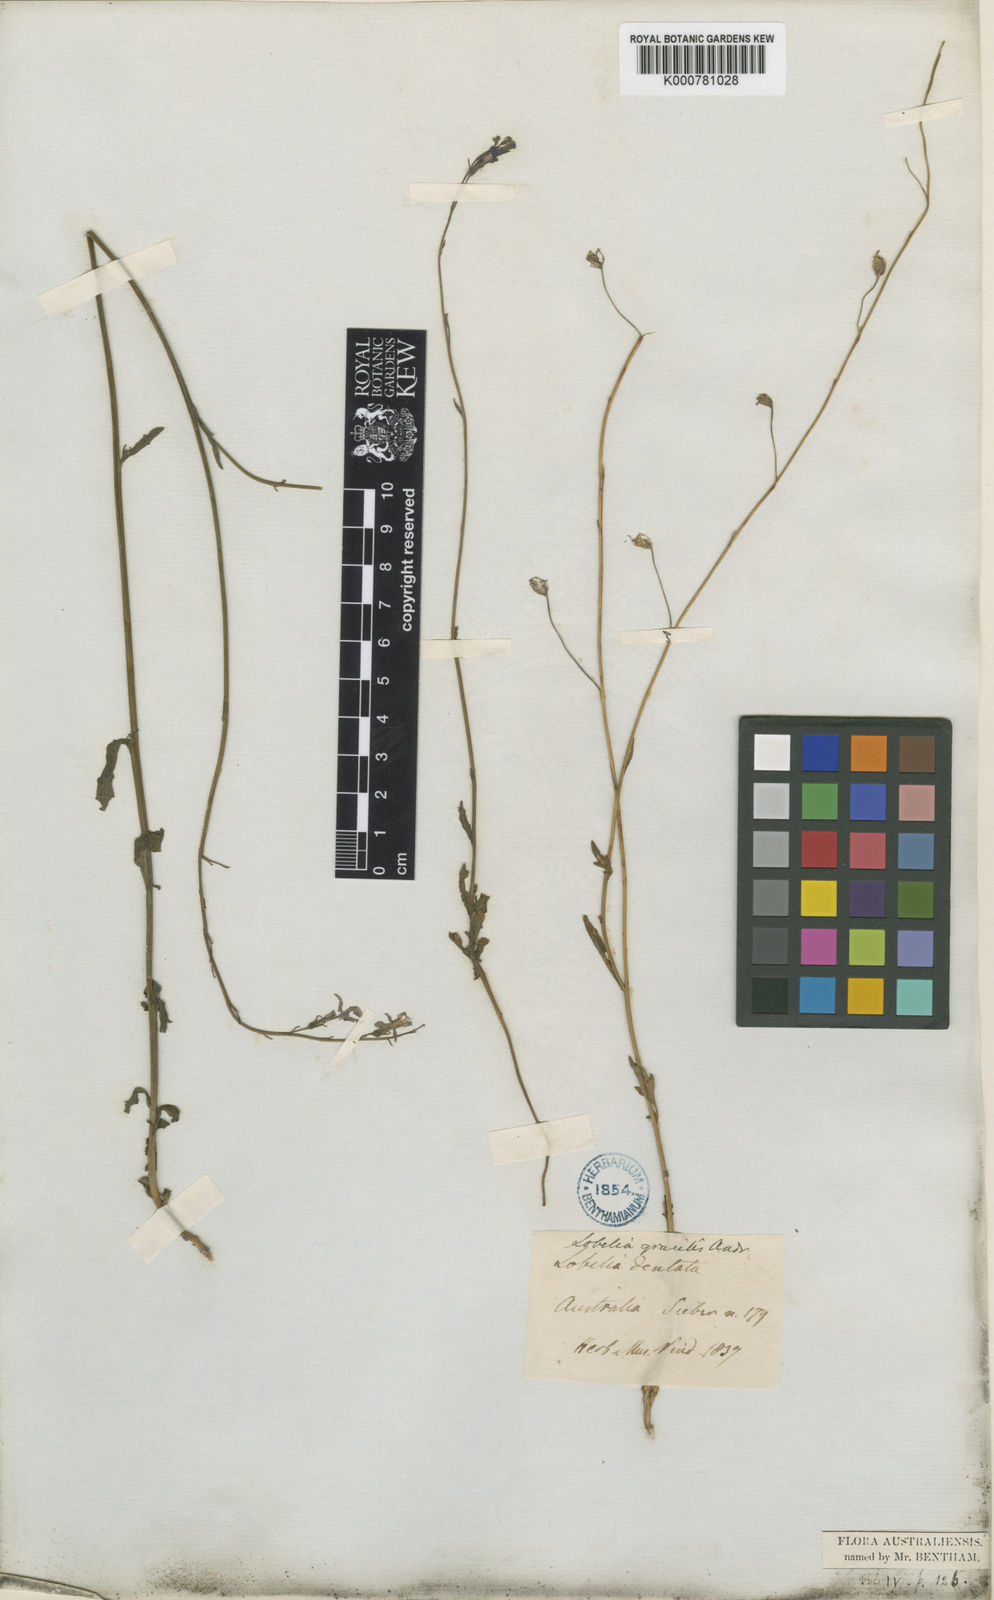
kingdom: Plantae
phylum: Tracheophyta
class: Magnoliopsida
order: Asterales
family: Campanulaceae
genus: Lobelia
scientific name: Lobelia andrewsii
